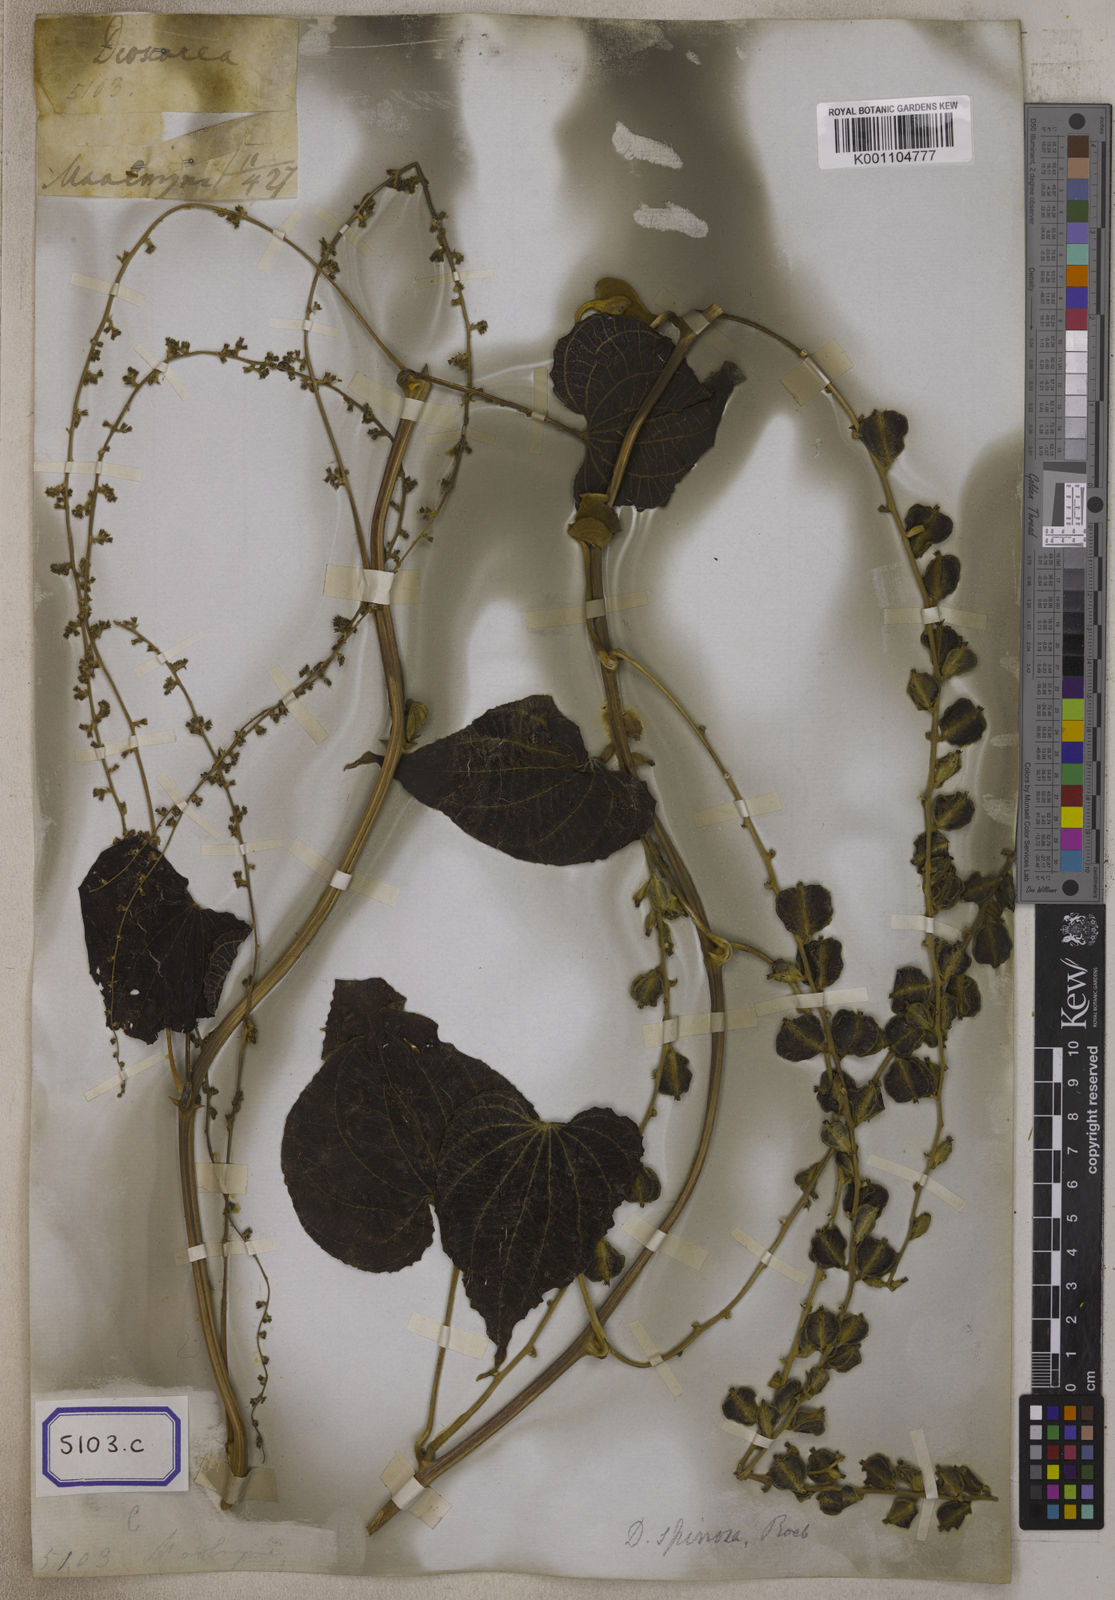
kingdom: Plantae
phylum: Tracheophyta
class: Liliopsida
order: Dioscoreales
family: Dioscoreaceae
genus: Dioscorea
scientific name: Dioscorea
